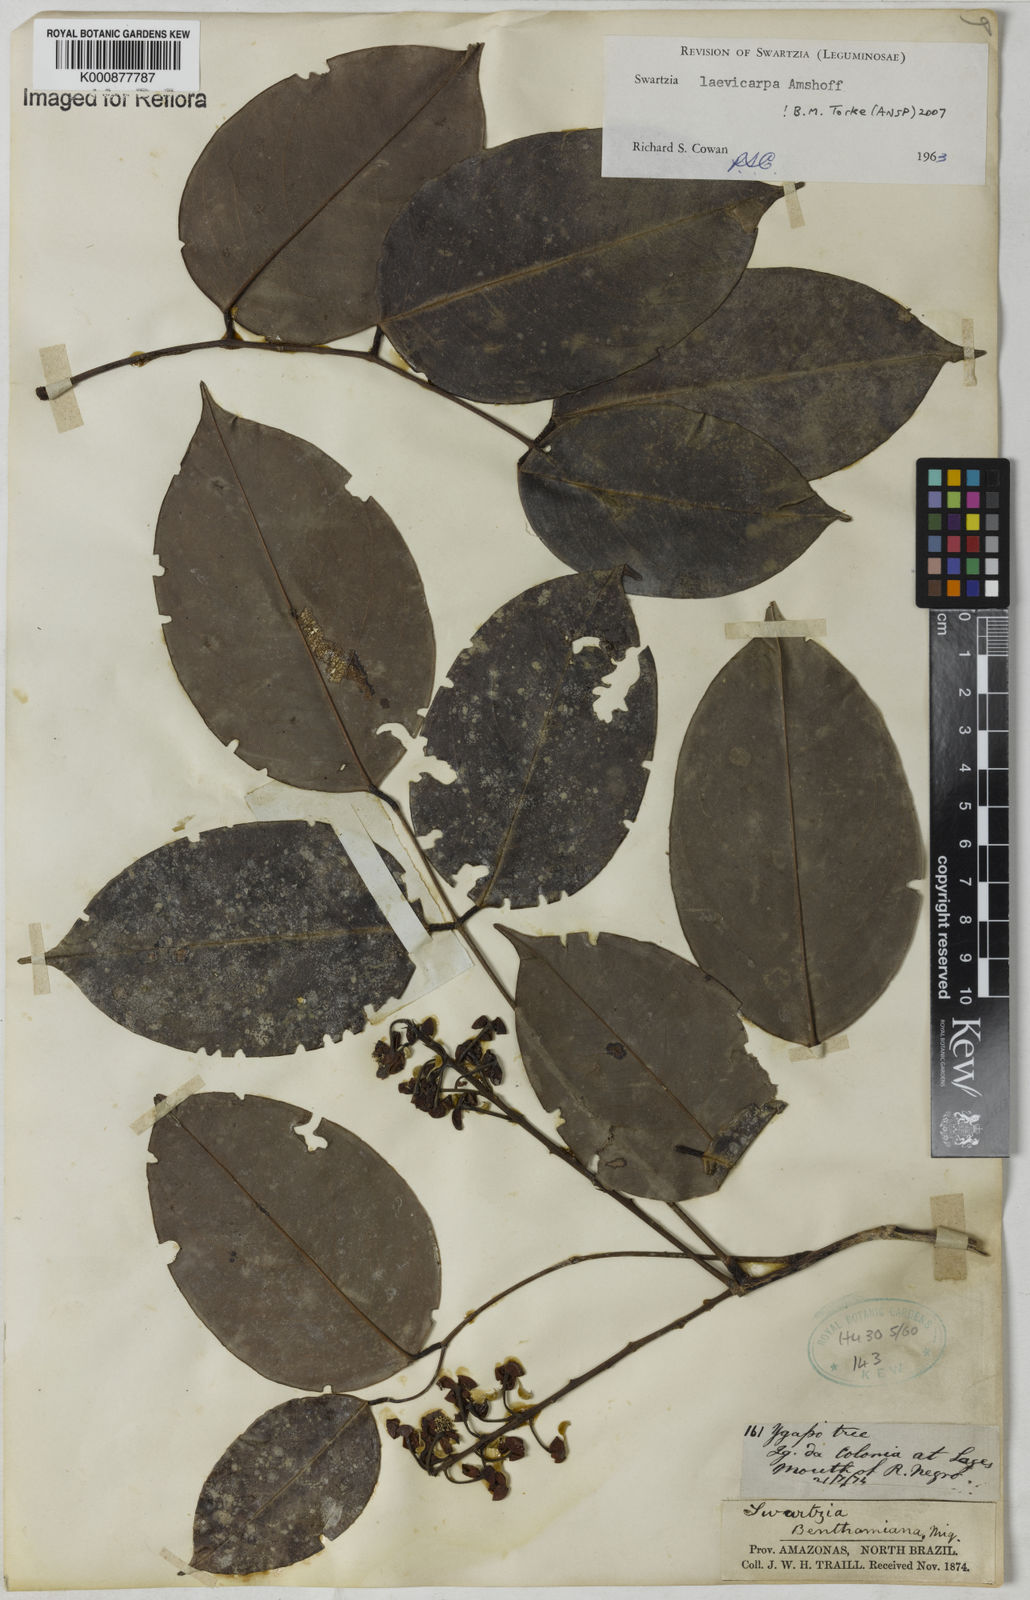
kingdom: Plantae
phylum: Tracheophyta
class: Magnoliopsida
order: Fabales
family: Fabaceae
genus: Swartzia
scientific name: Swartzia laevicarpa
